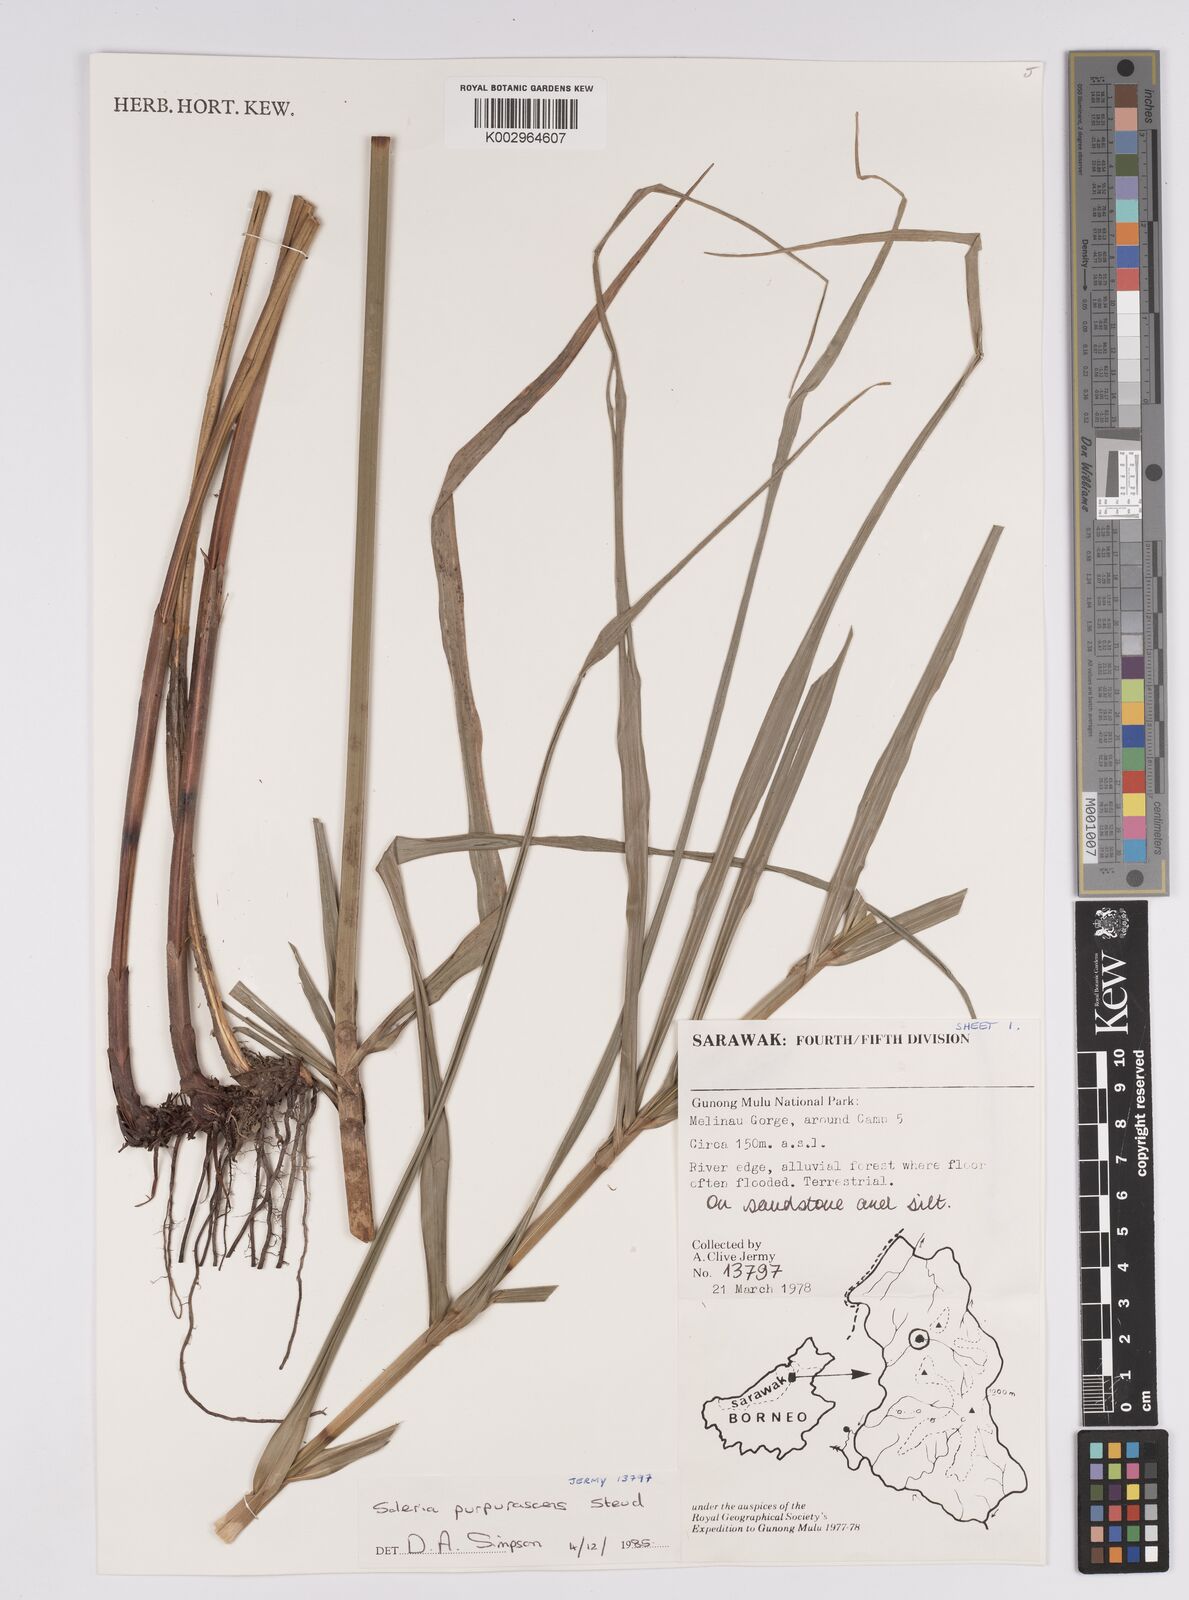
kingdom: Plantae
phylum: Tracheophyta
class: Liliopsida
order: Poales
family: Cyperaceae
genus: Scleria
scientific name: Scleria purpurascens
